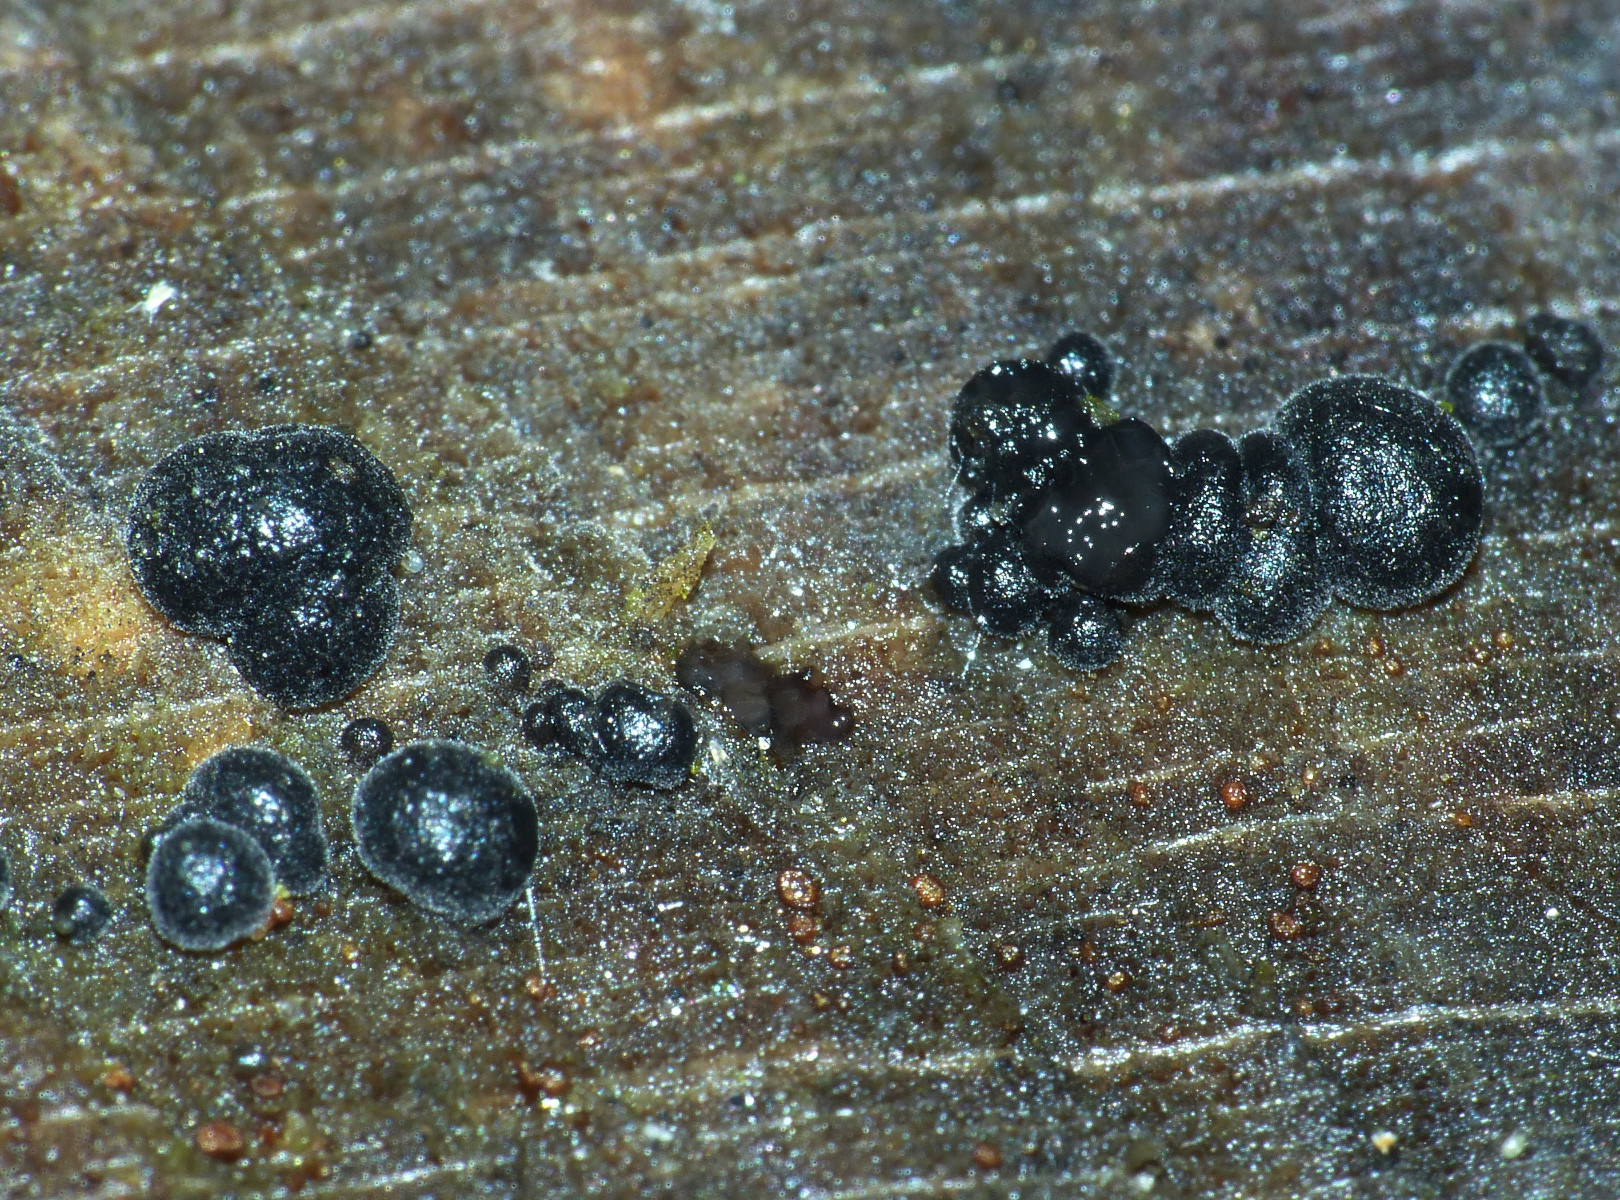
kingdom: Fungi
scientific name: Fungi
